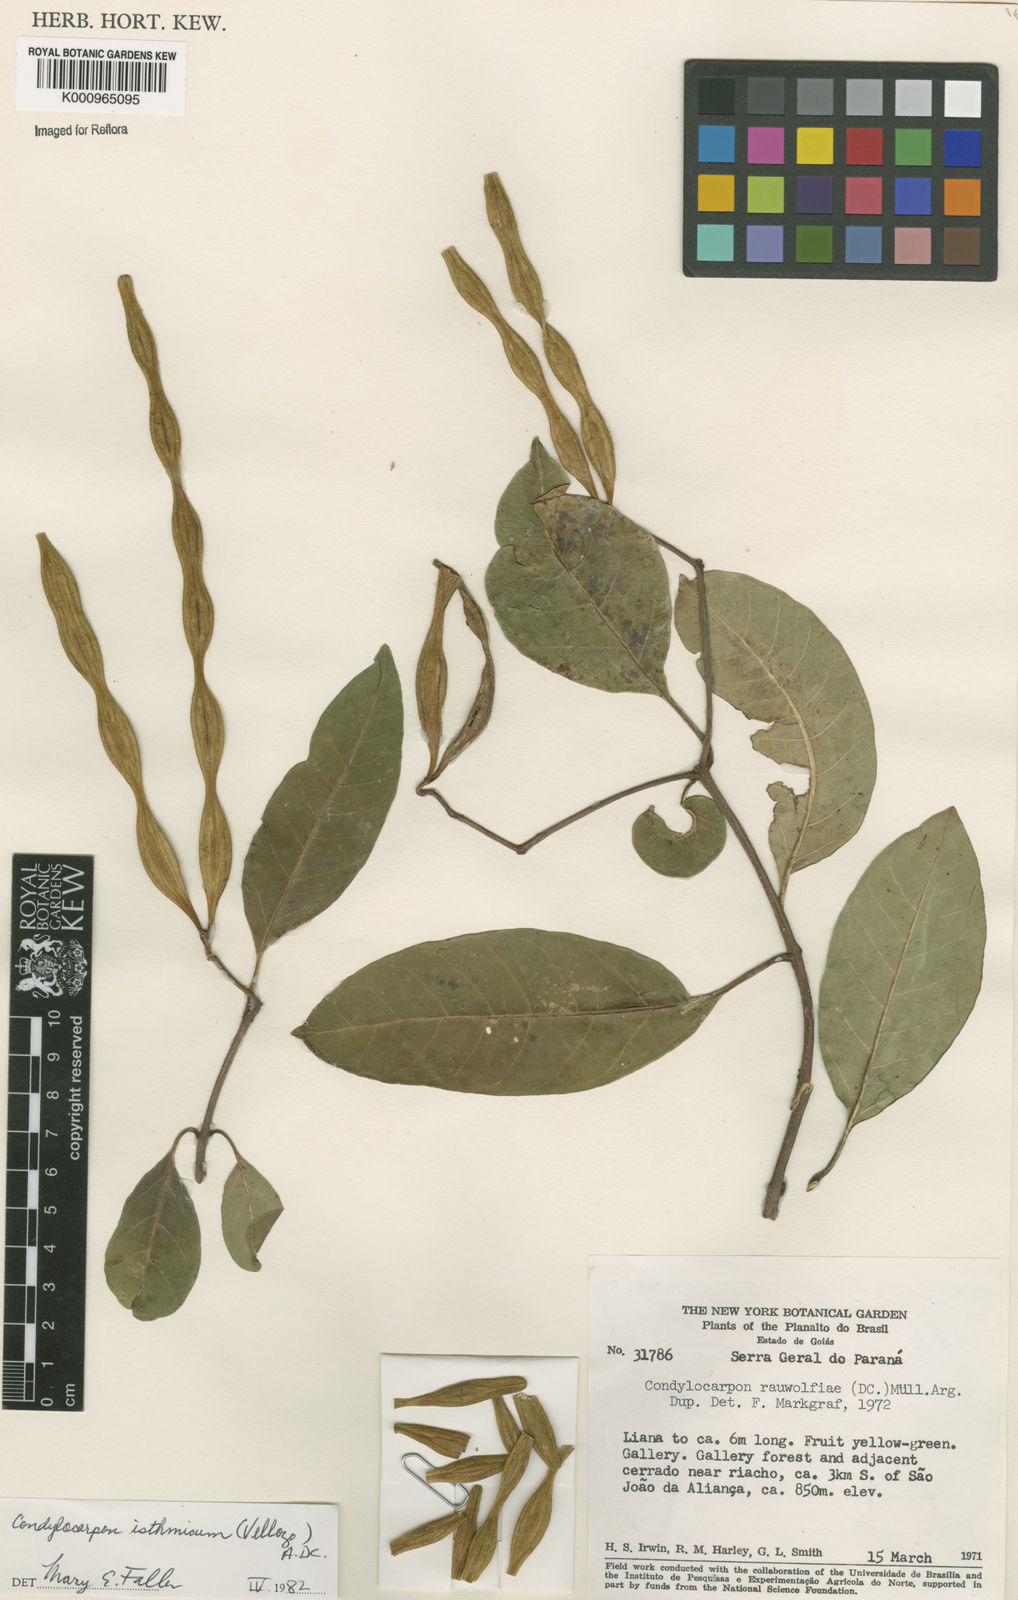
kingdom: Plantae
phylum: Tracheophyta
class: Magnoliopsida
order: Gentianales
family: Apocynaceae
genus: Condylocarpon
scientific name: Condylocarpon isthmicum
